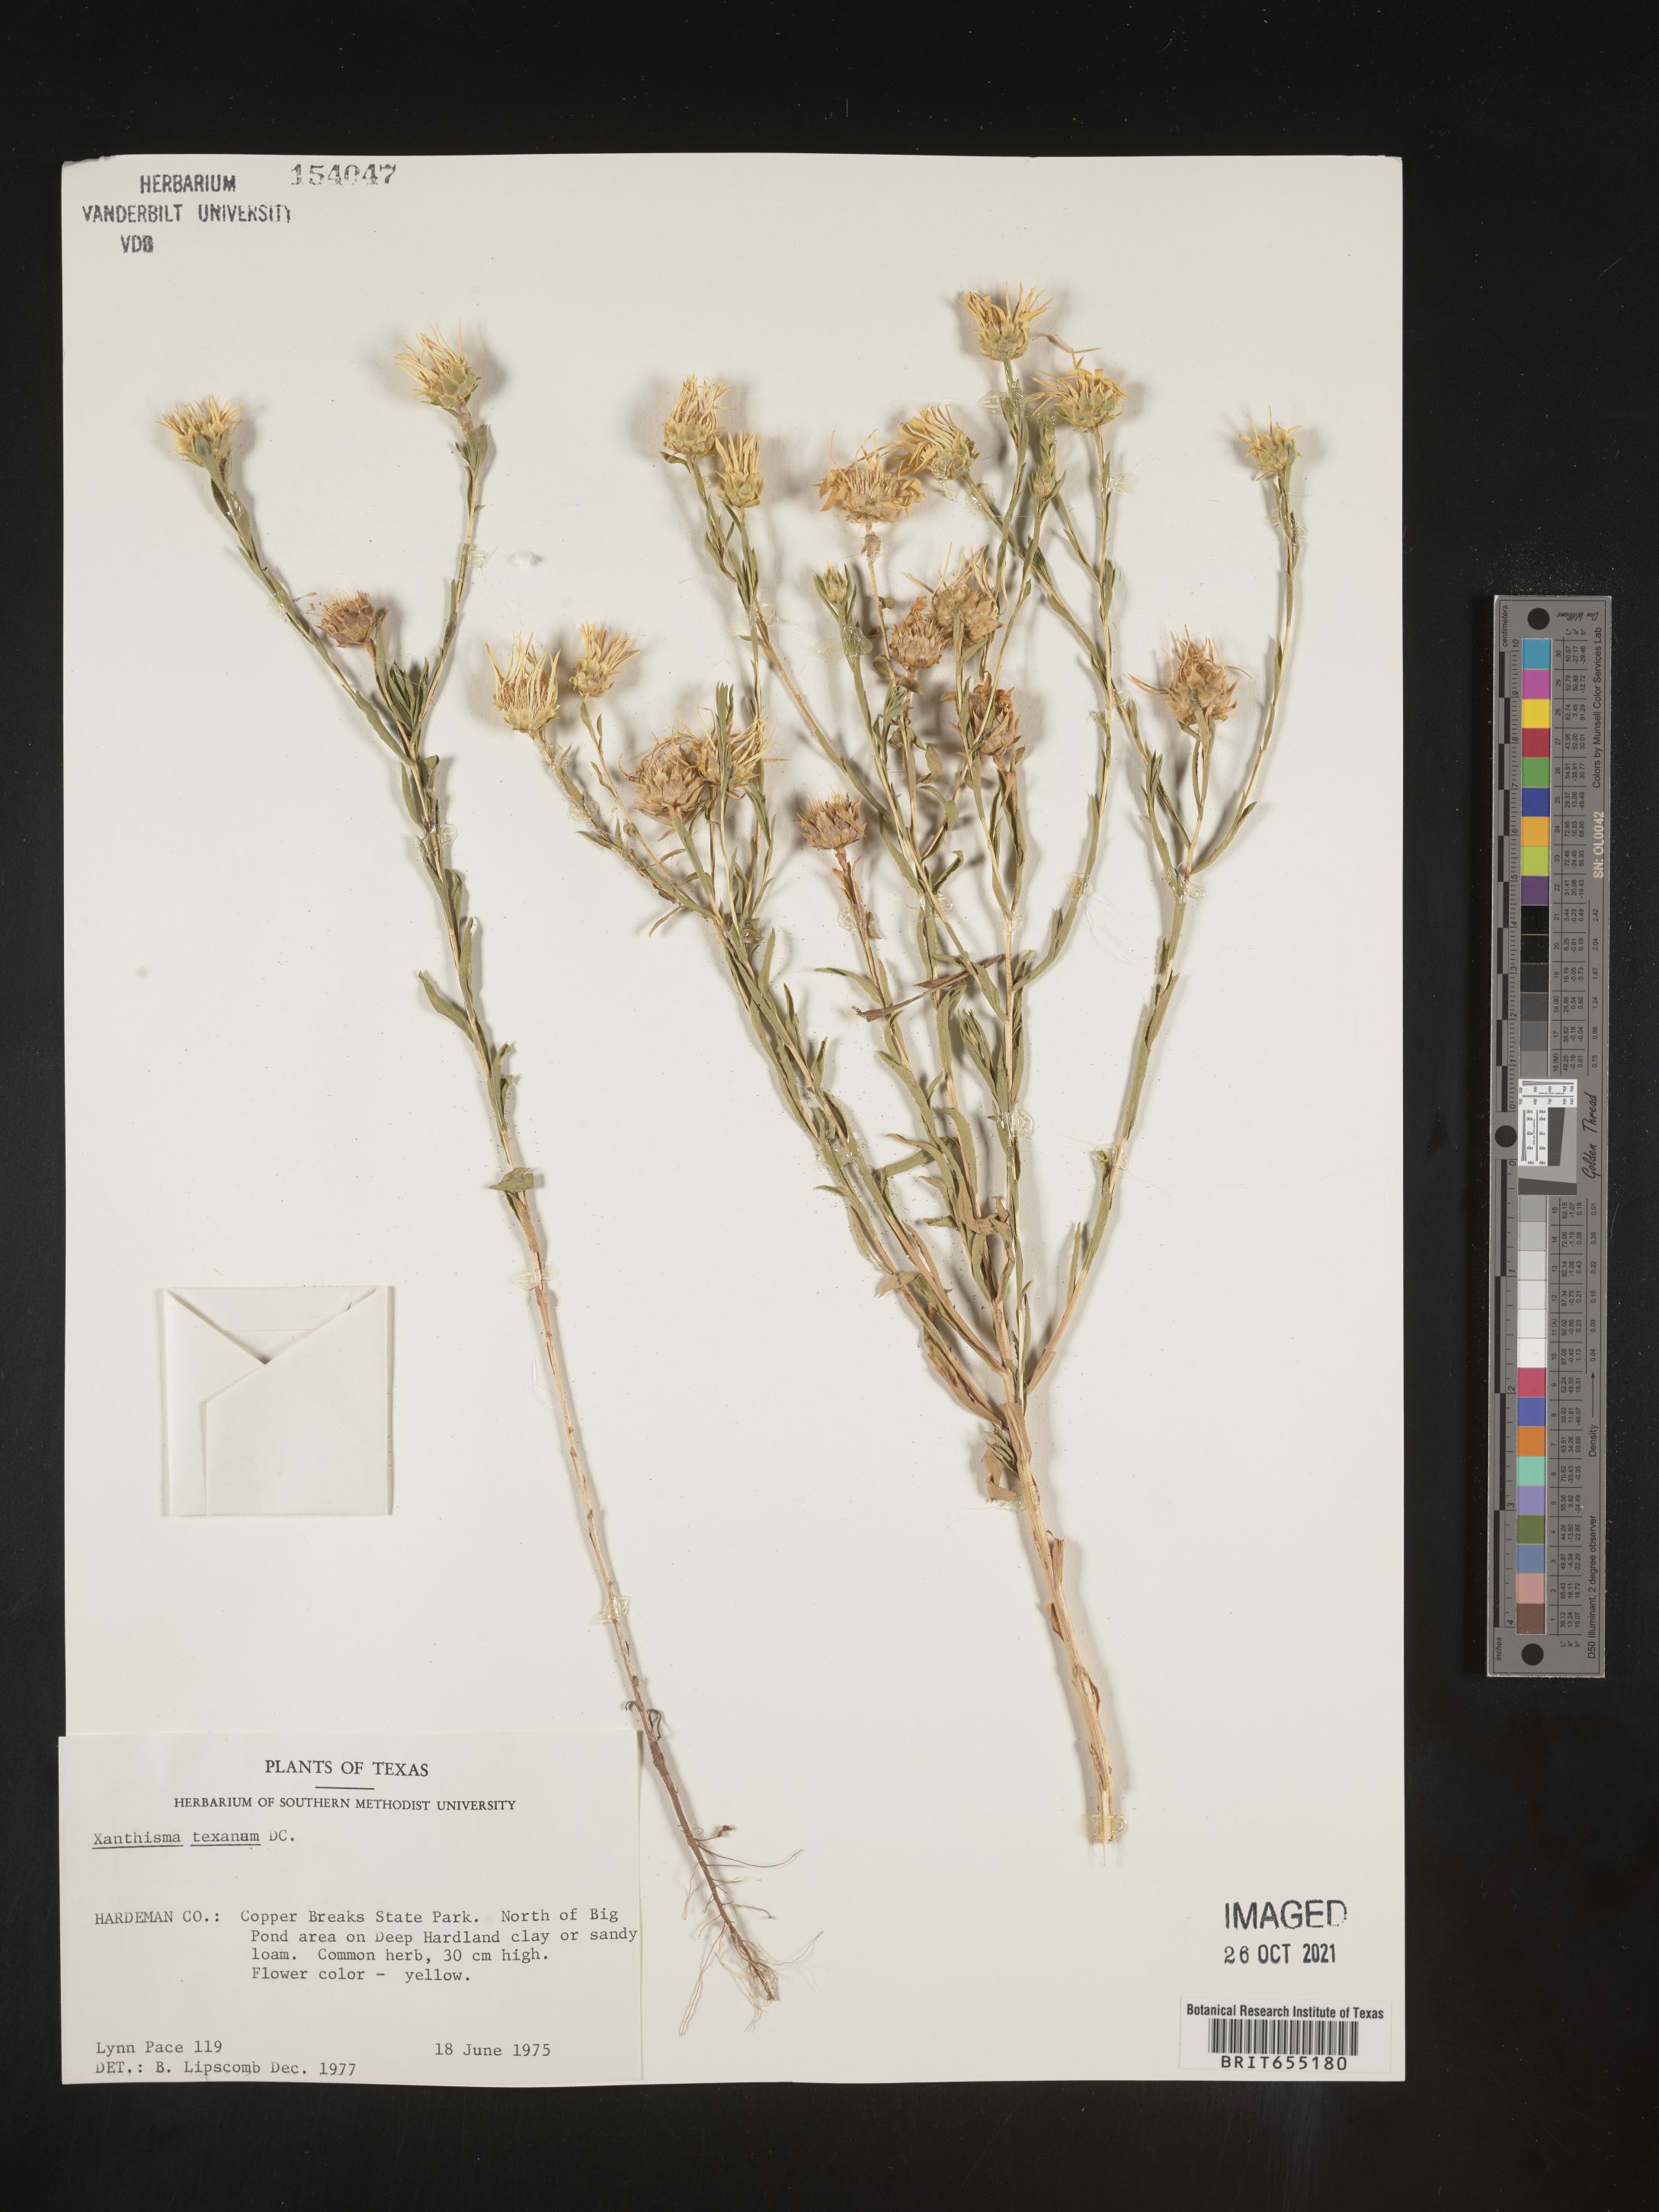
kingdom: Plantae
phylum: Tracheophyta
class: Magnoliopsida
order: Asterales
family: Asteraceae
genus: Xanthisma
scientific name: Xanthisma texanum
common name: Texas sleepy daisy
